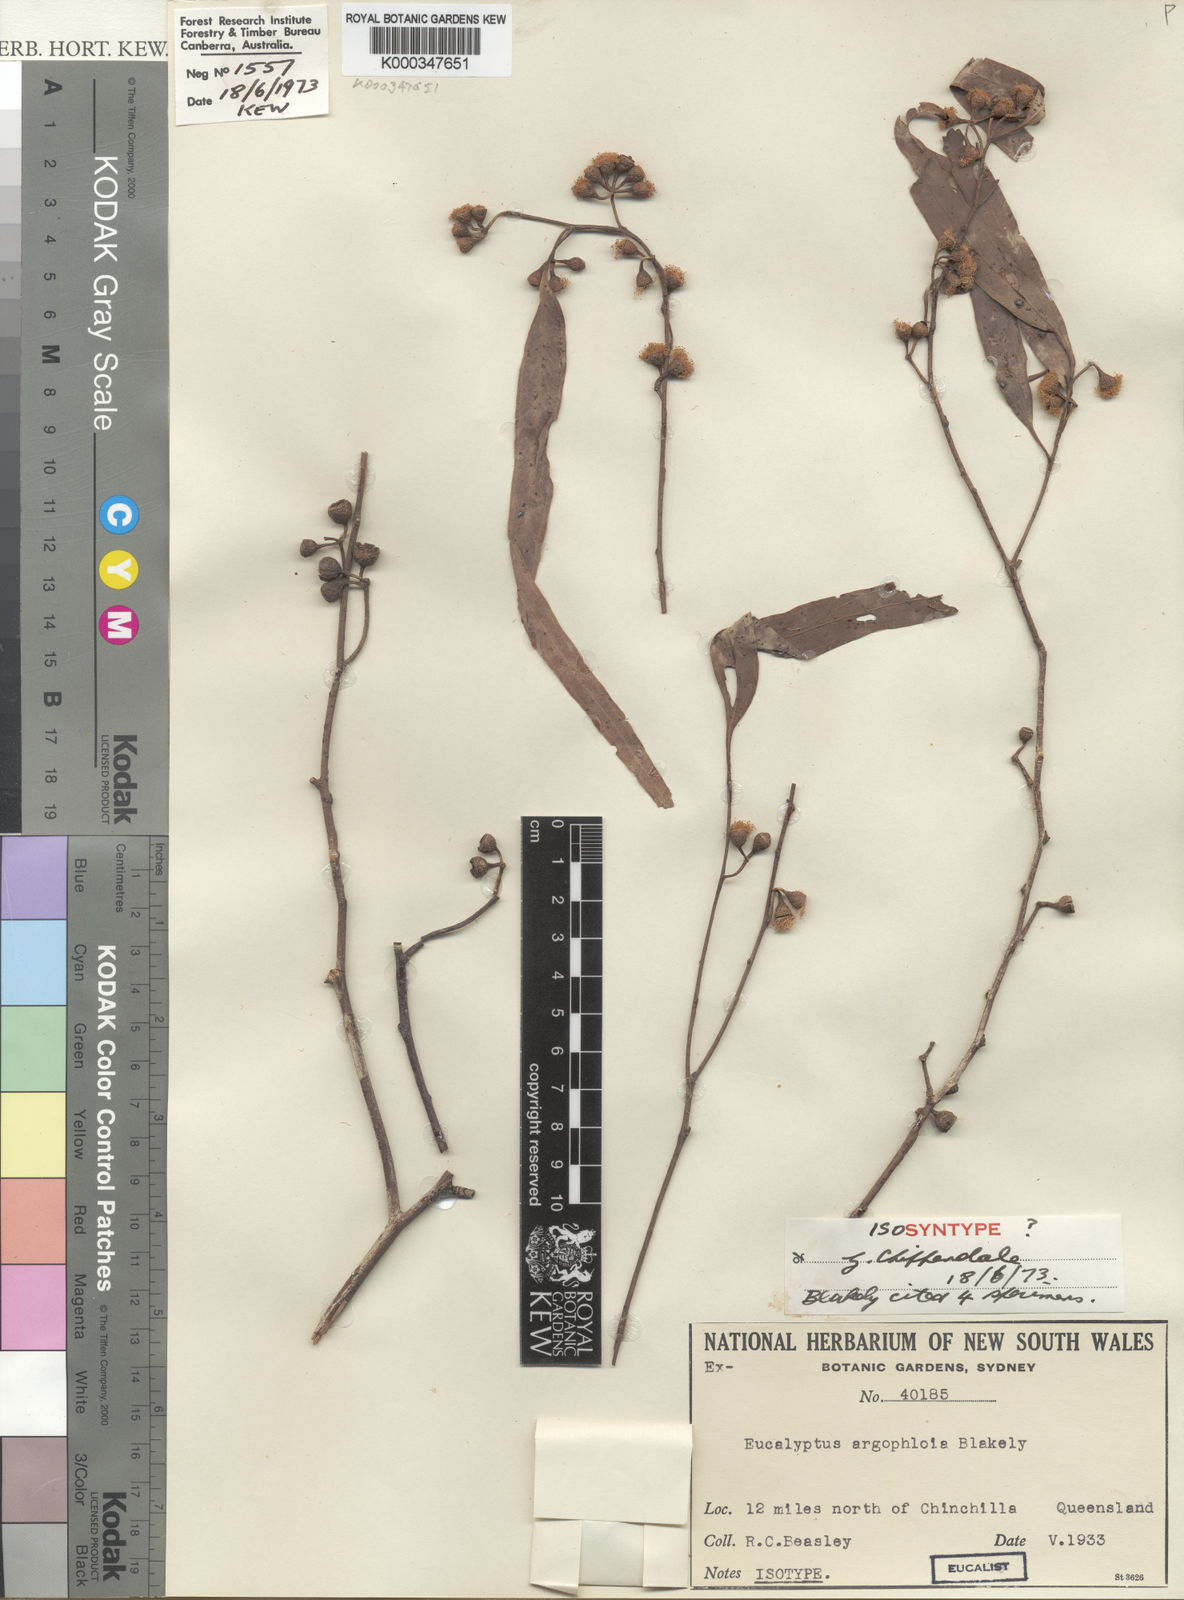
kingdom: Plantae
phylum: Tracheophyta
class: Magnoliopsida
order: Myrtales
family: Myrtaceae
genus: Eucalyptus
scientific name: Eucalyptus argophloia
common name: Burncluith gum
